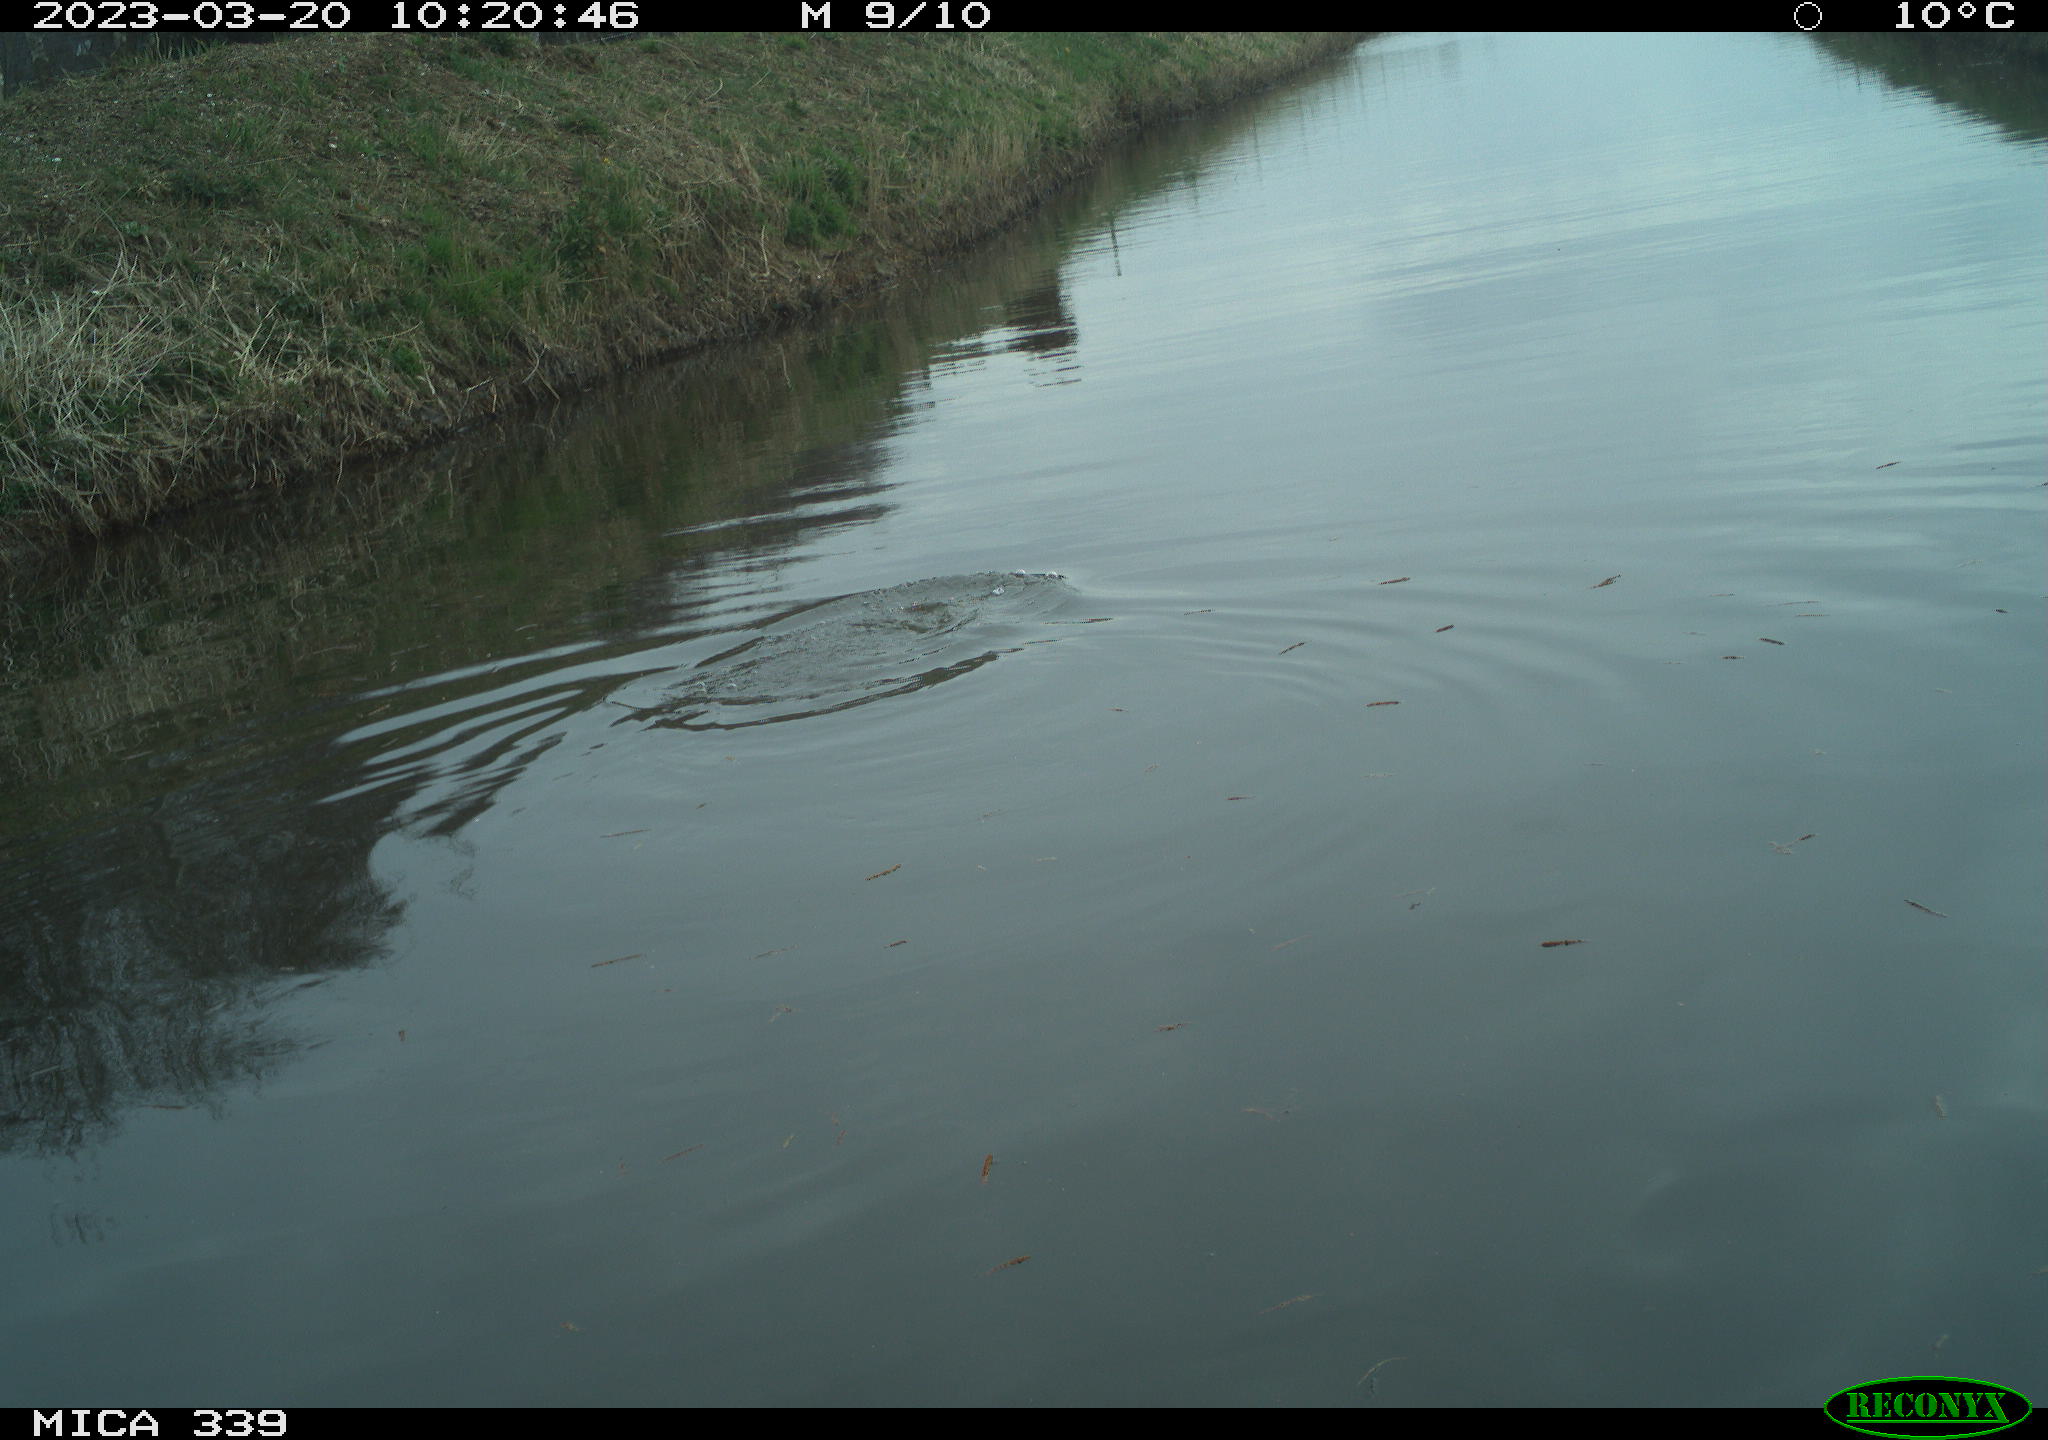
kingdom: Animalia
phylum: Chordata
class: Aves
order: Anseriformes
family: Anatidae
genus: Anas
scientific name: Anas
